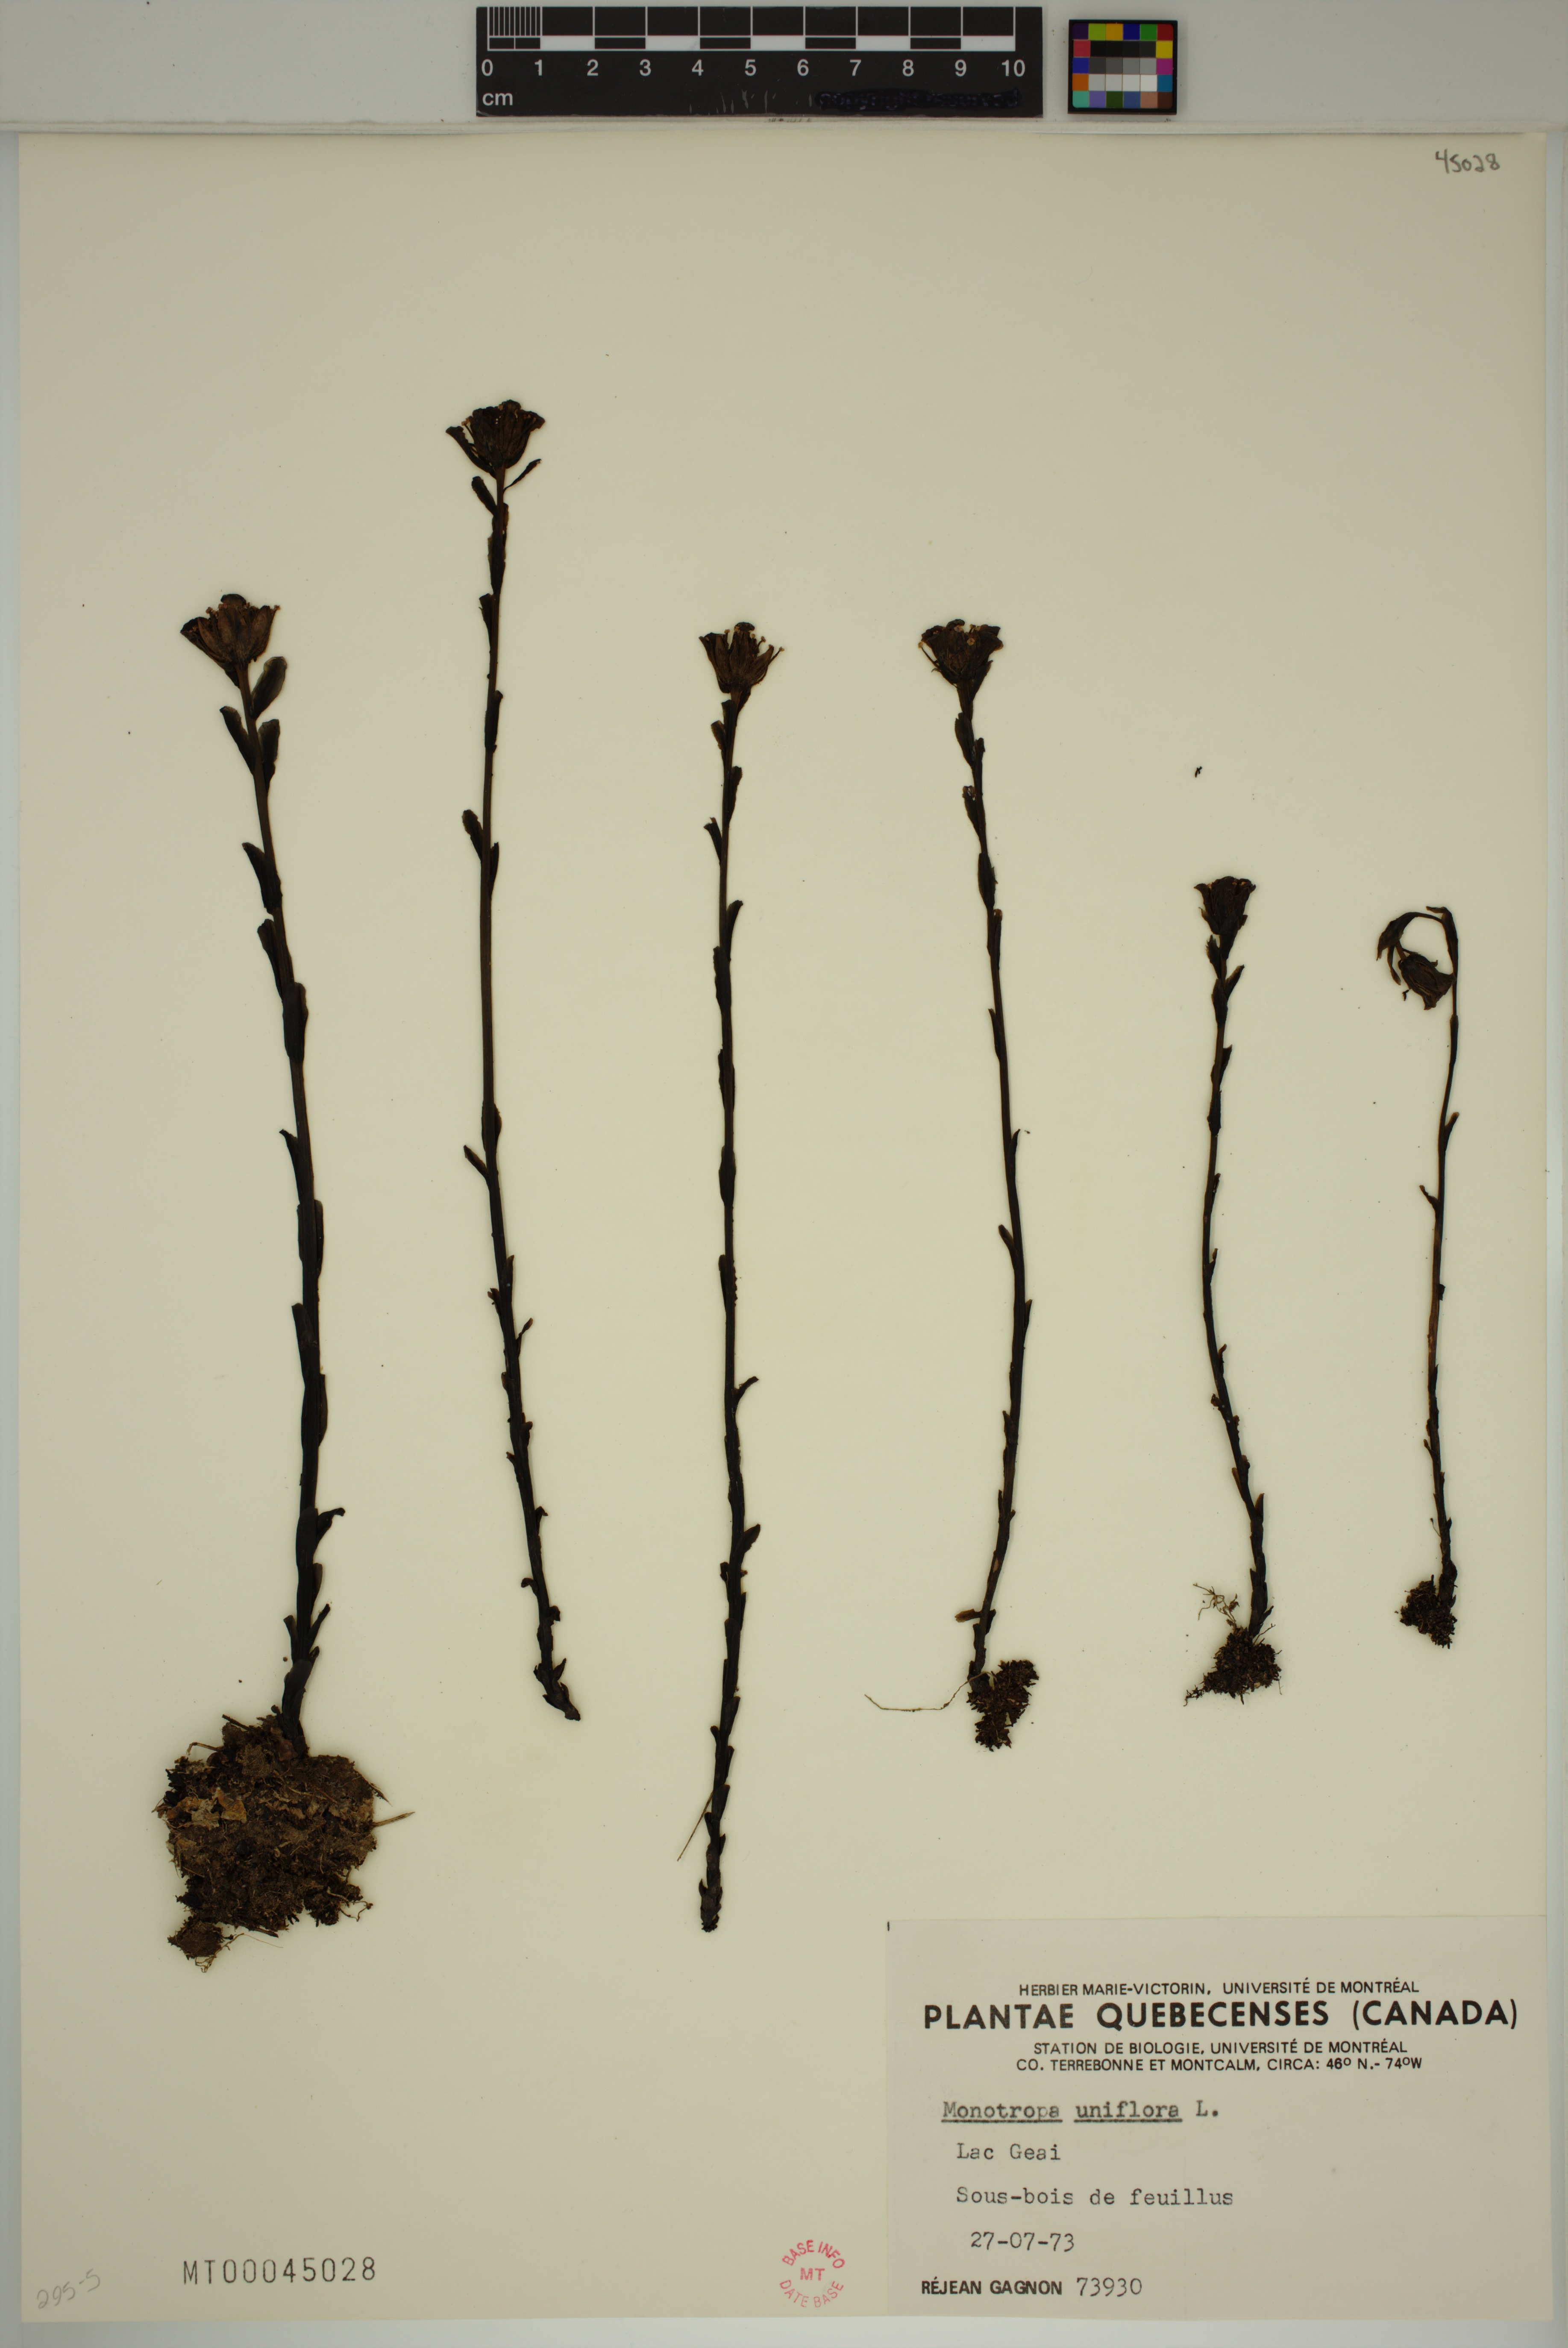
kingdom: Plantae
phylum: Tracheophyta
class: Magnoliopsida
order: Ericales
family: Ericaceae
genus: Monotropa
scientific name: Monotropa uniflora
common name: Convulsion root
